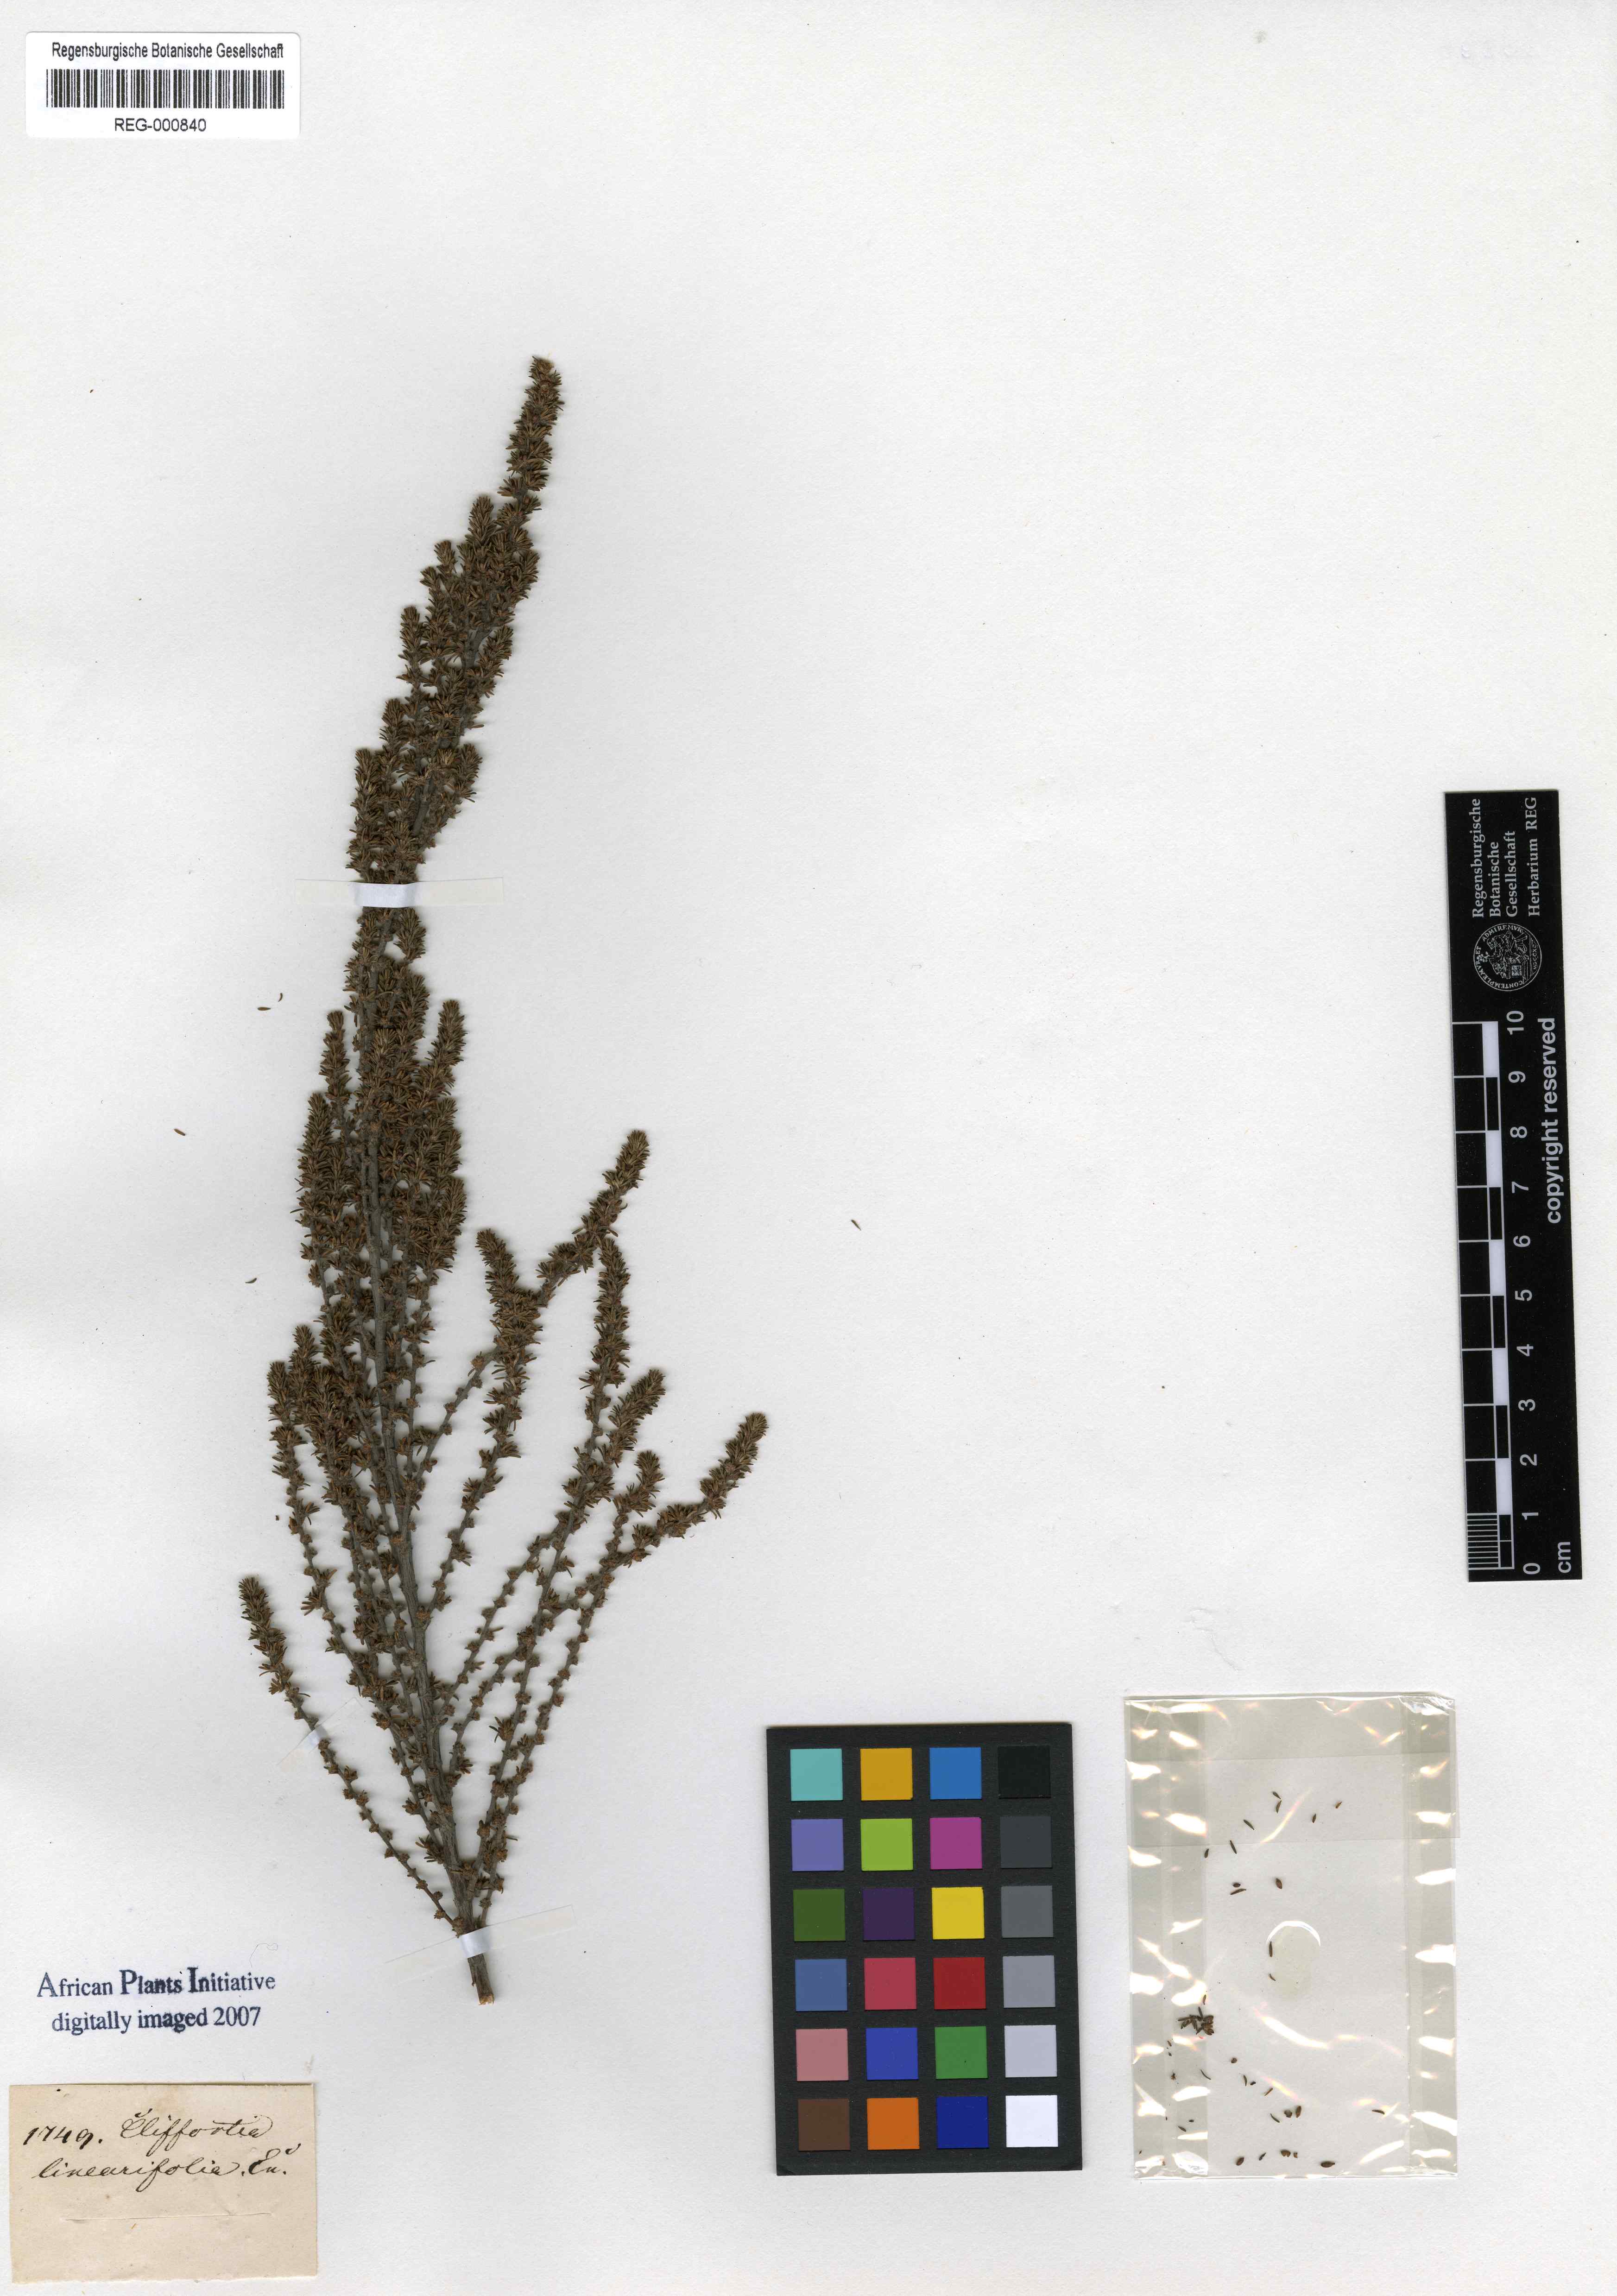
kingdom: Plantae
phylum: Tracheophyta
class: Magnoliopsida
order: Rosales
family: Rosaceae
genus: Cliffortia
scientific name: Cliffortia linearifolia
